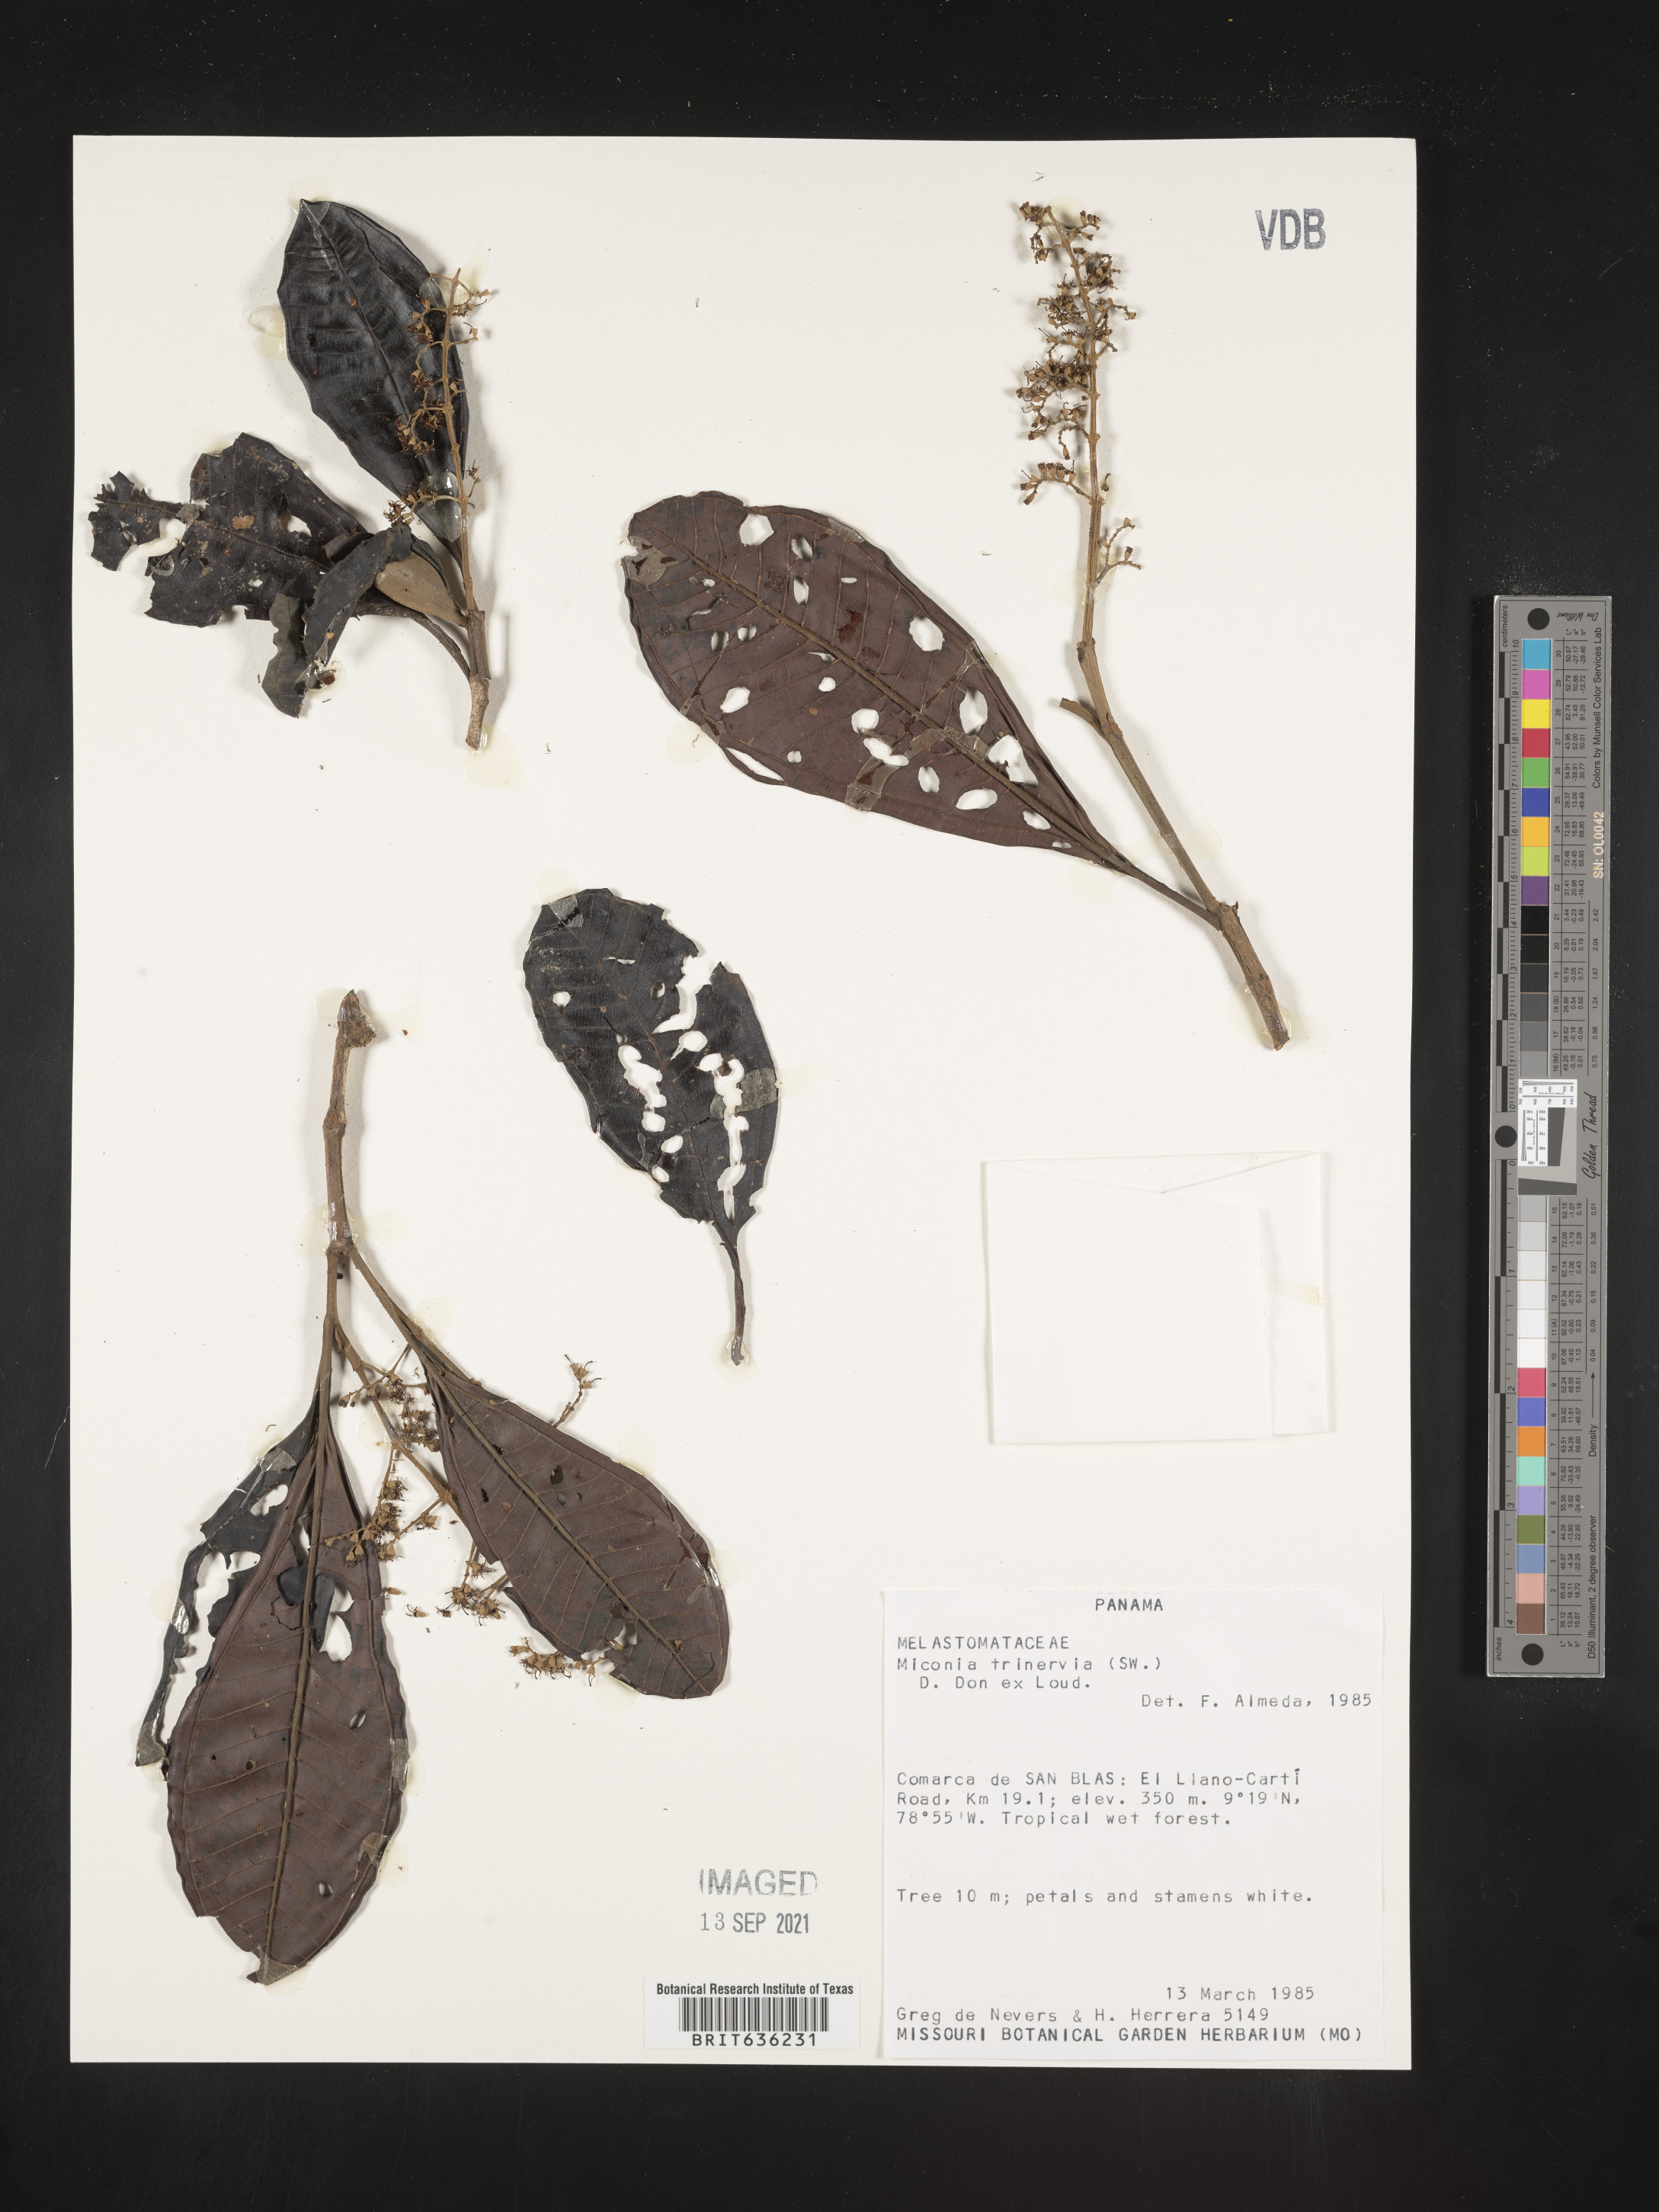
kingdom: Plantae
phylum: Tracheophyta
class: Magnoliopsida
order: Myrtales
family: Melastomataceae
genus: Miconia
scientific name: Miconia
